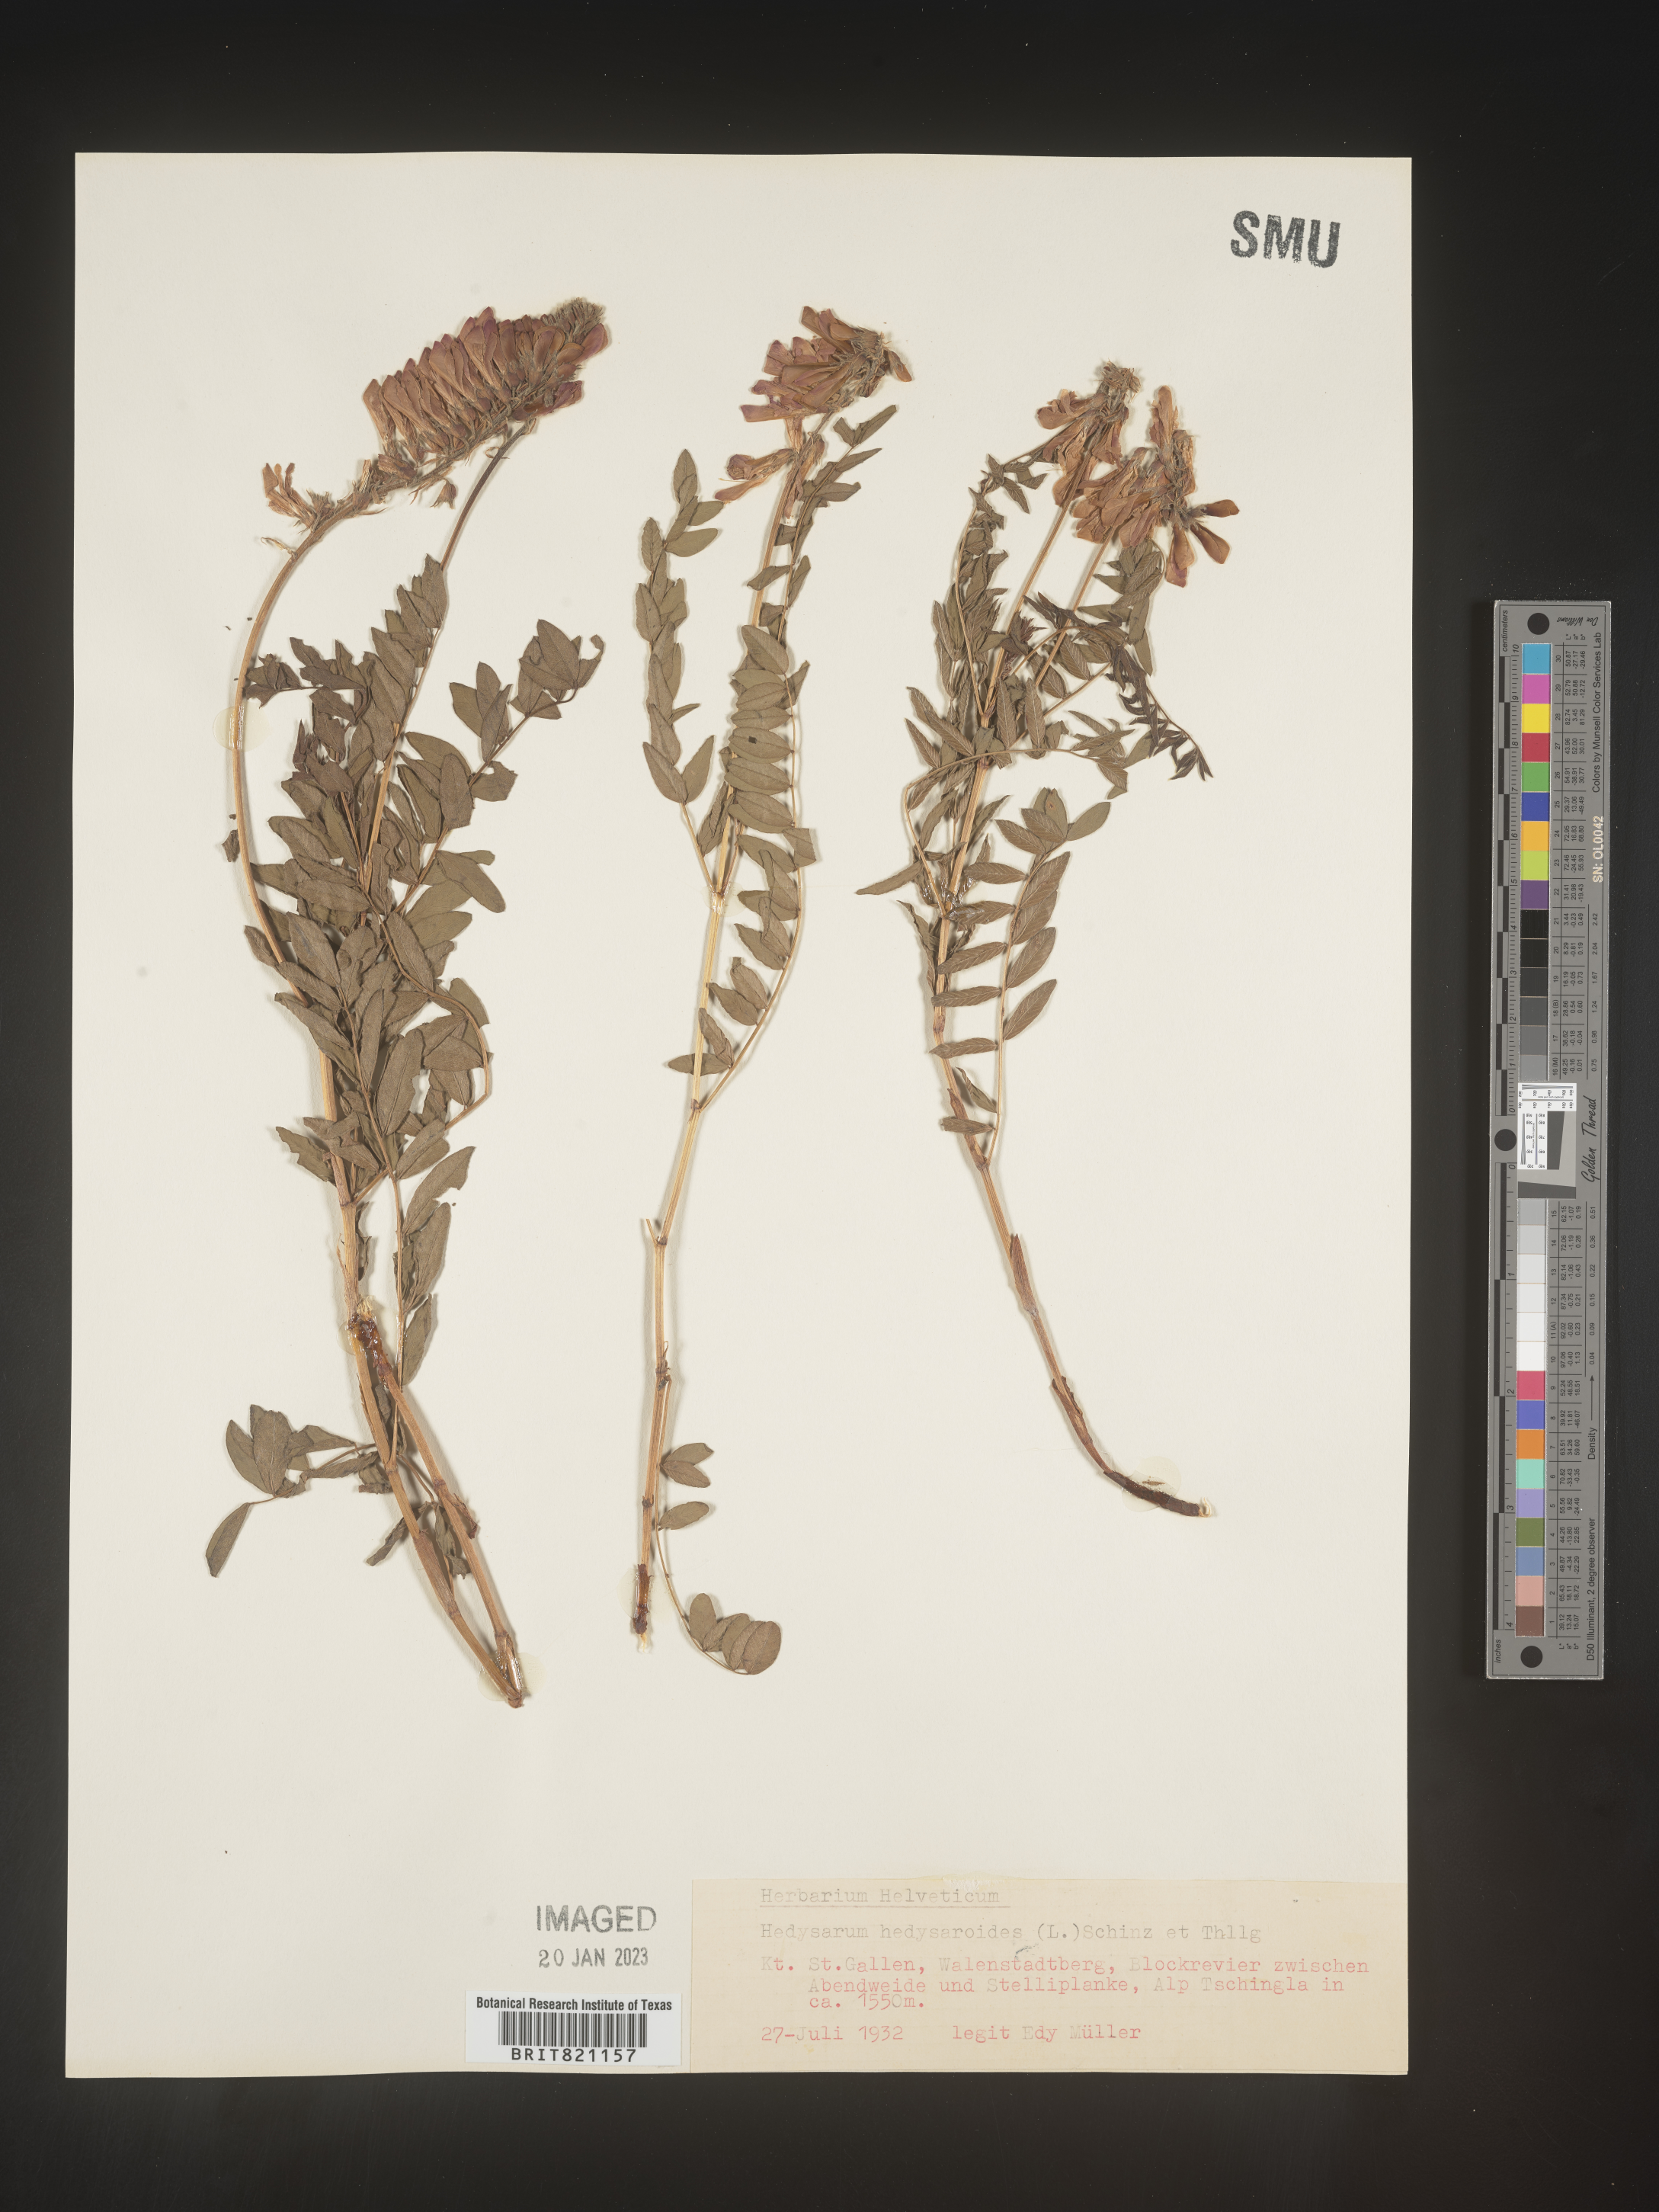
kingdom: Plantae
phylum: Tracheophyta
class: Magnoliopsida
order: Fabales
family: Fabaceae
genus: Hedysarum
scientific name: Hedysarum
